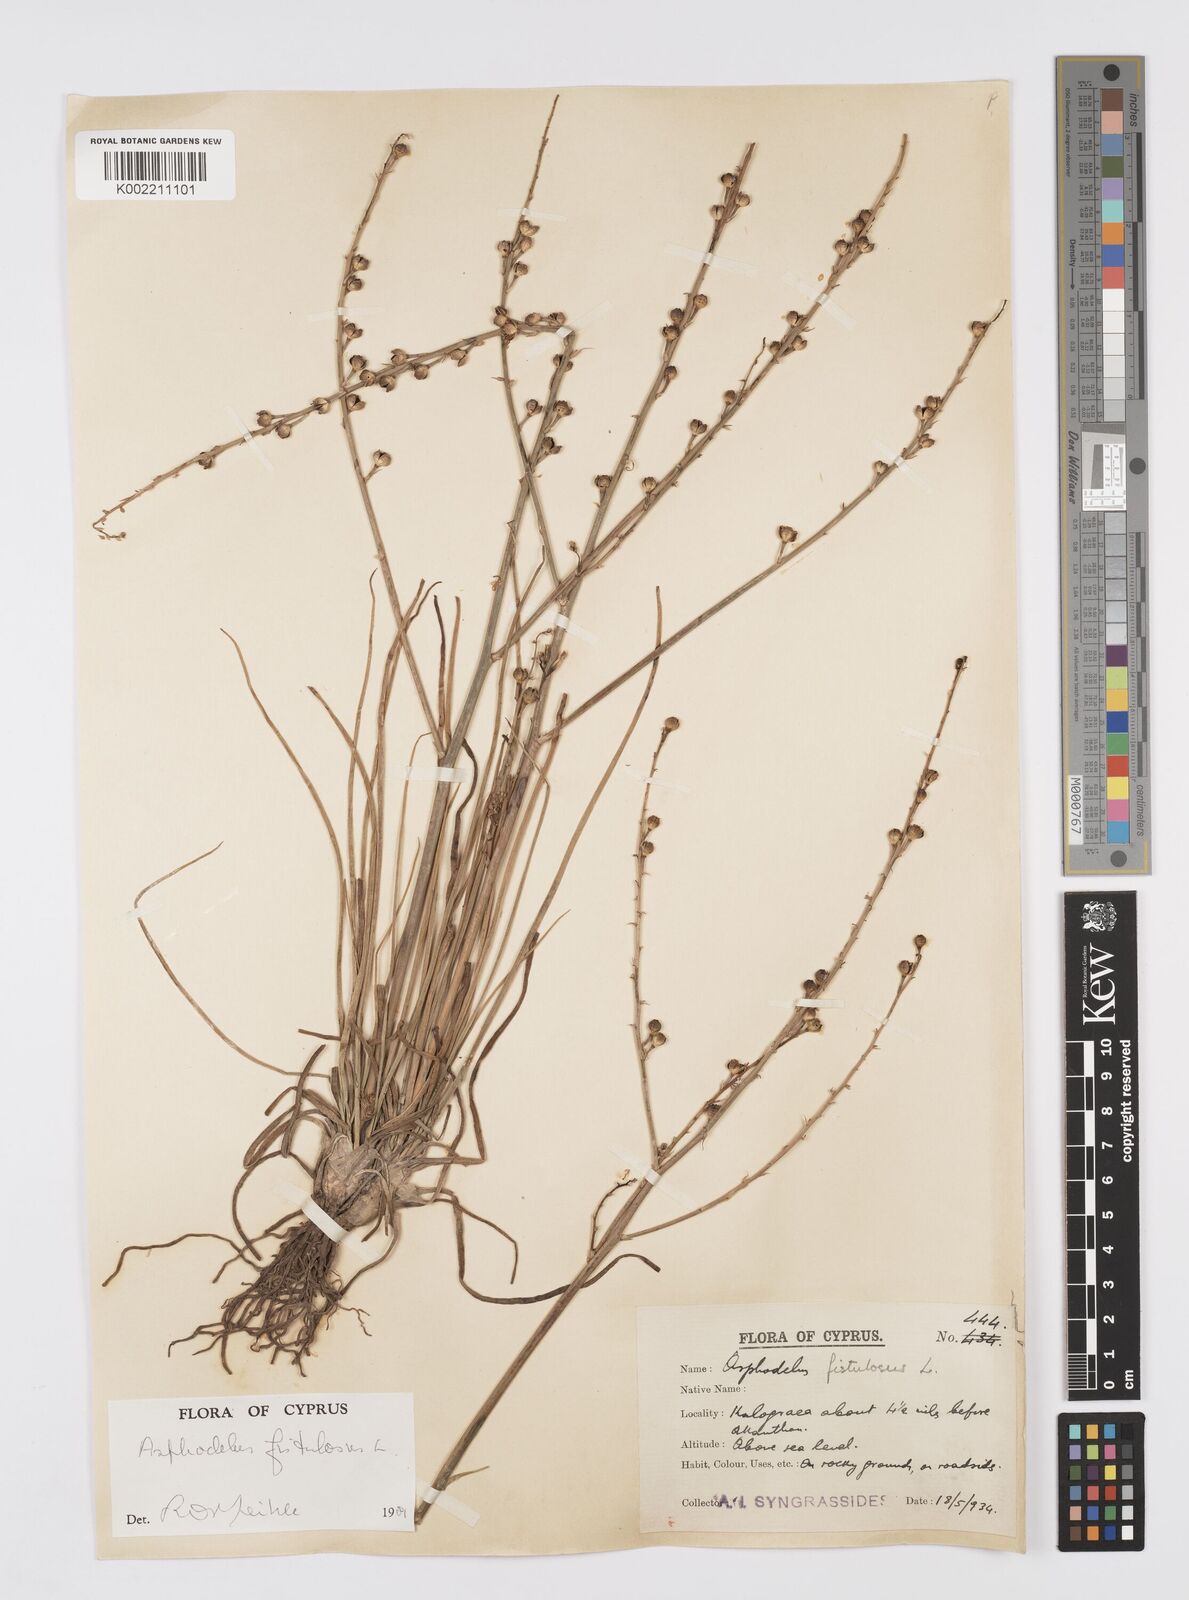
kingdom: Plantae
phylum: Tracheophyta
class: Liliopsida
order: Asparagales
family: Asphodelaceae
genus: Asphodelus
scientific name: Asphodelus fistulosus
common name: Onionweed
